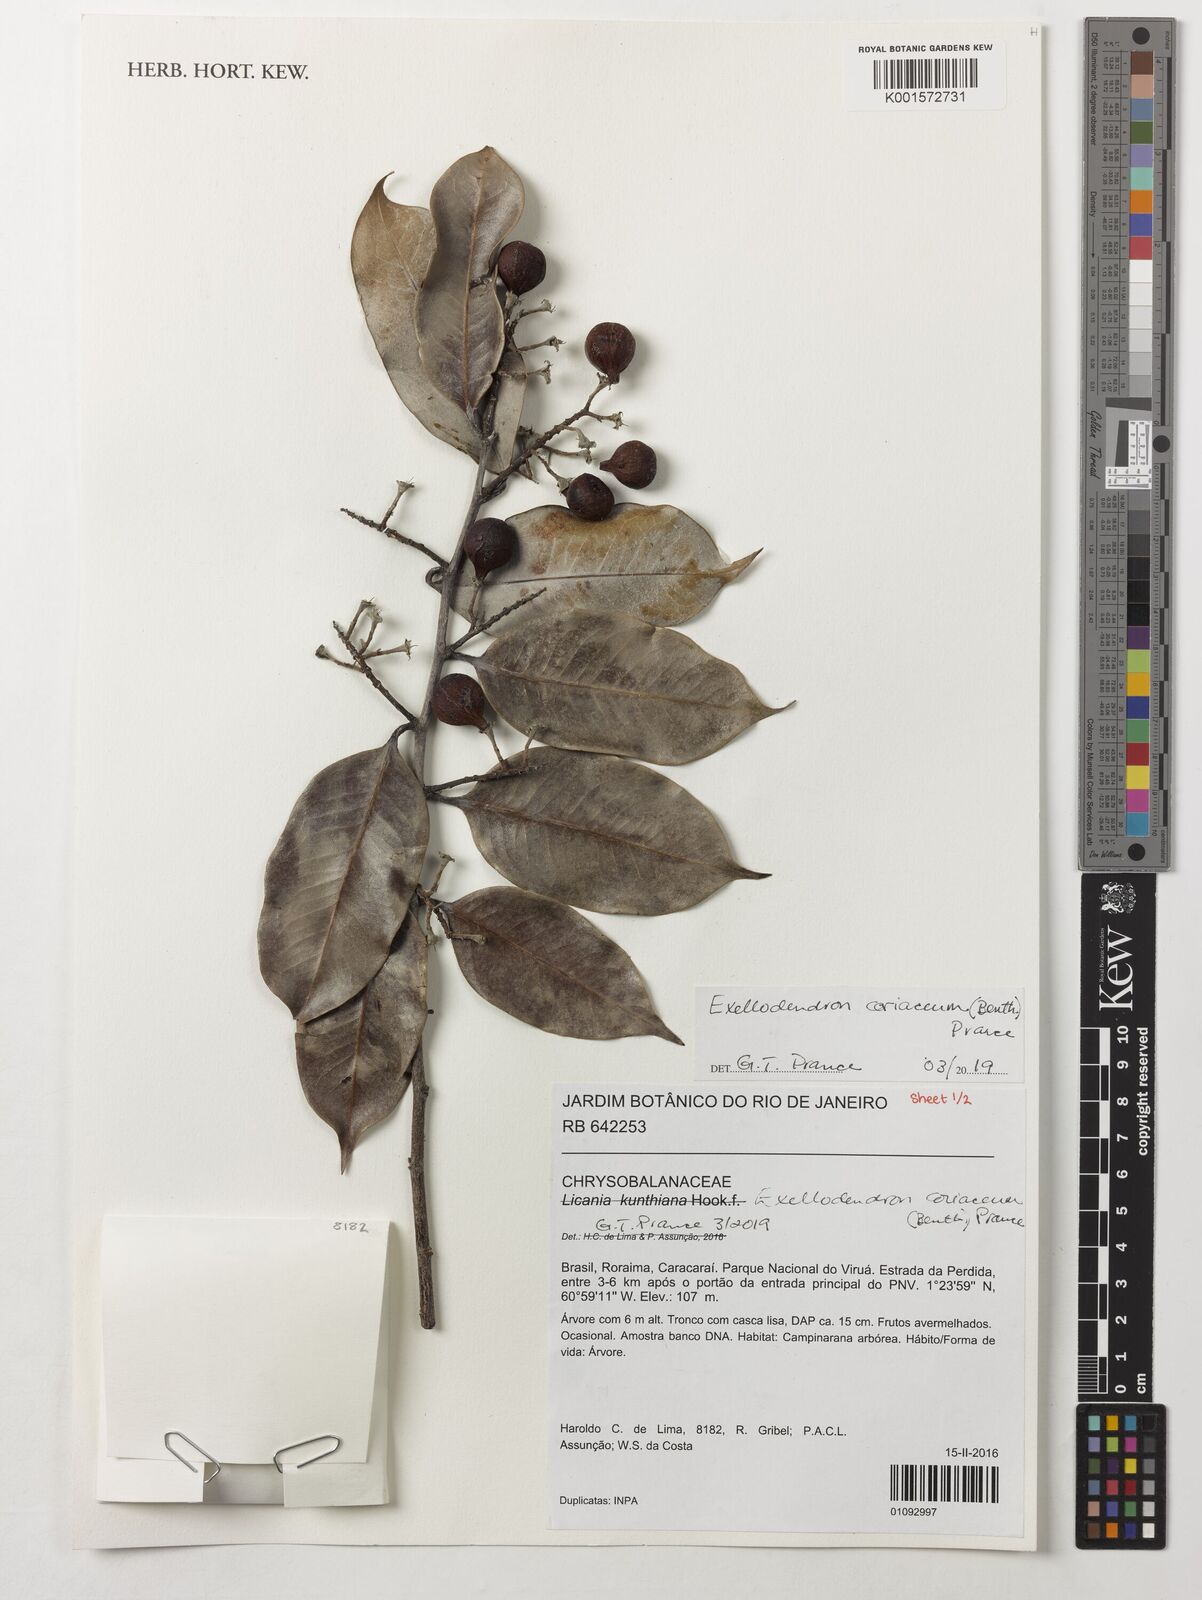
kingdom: Plantae
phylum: Tracheophyta
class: Magnoliopsida
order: Malpighiales
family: Chrysobalanaceae
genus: Exellodendron
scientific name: Exellodendron coriaceum
